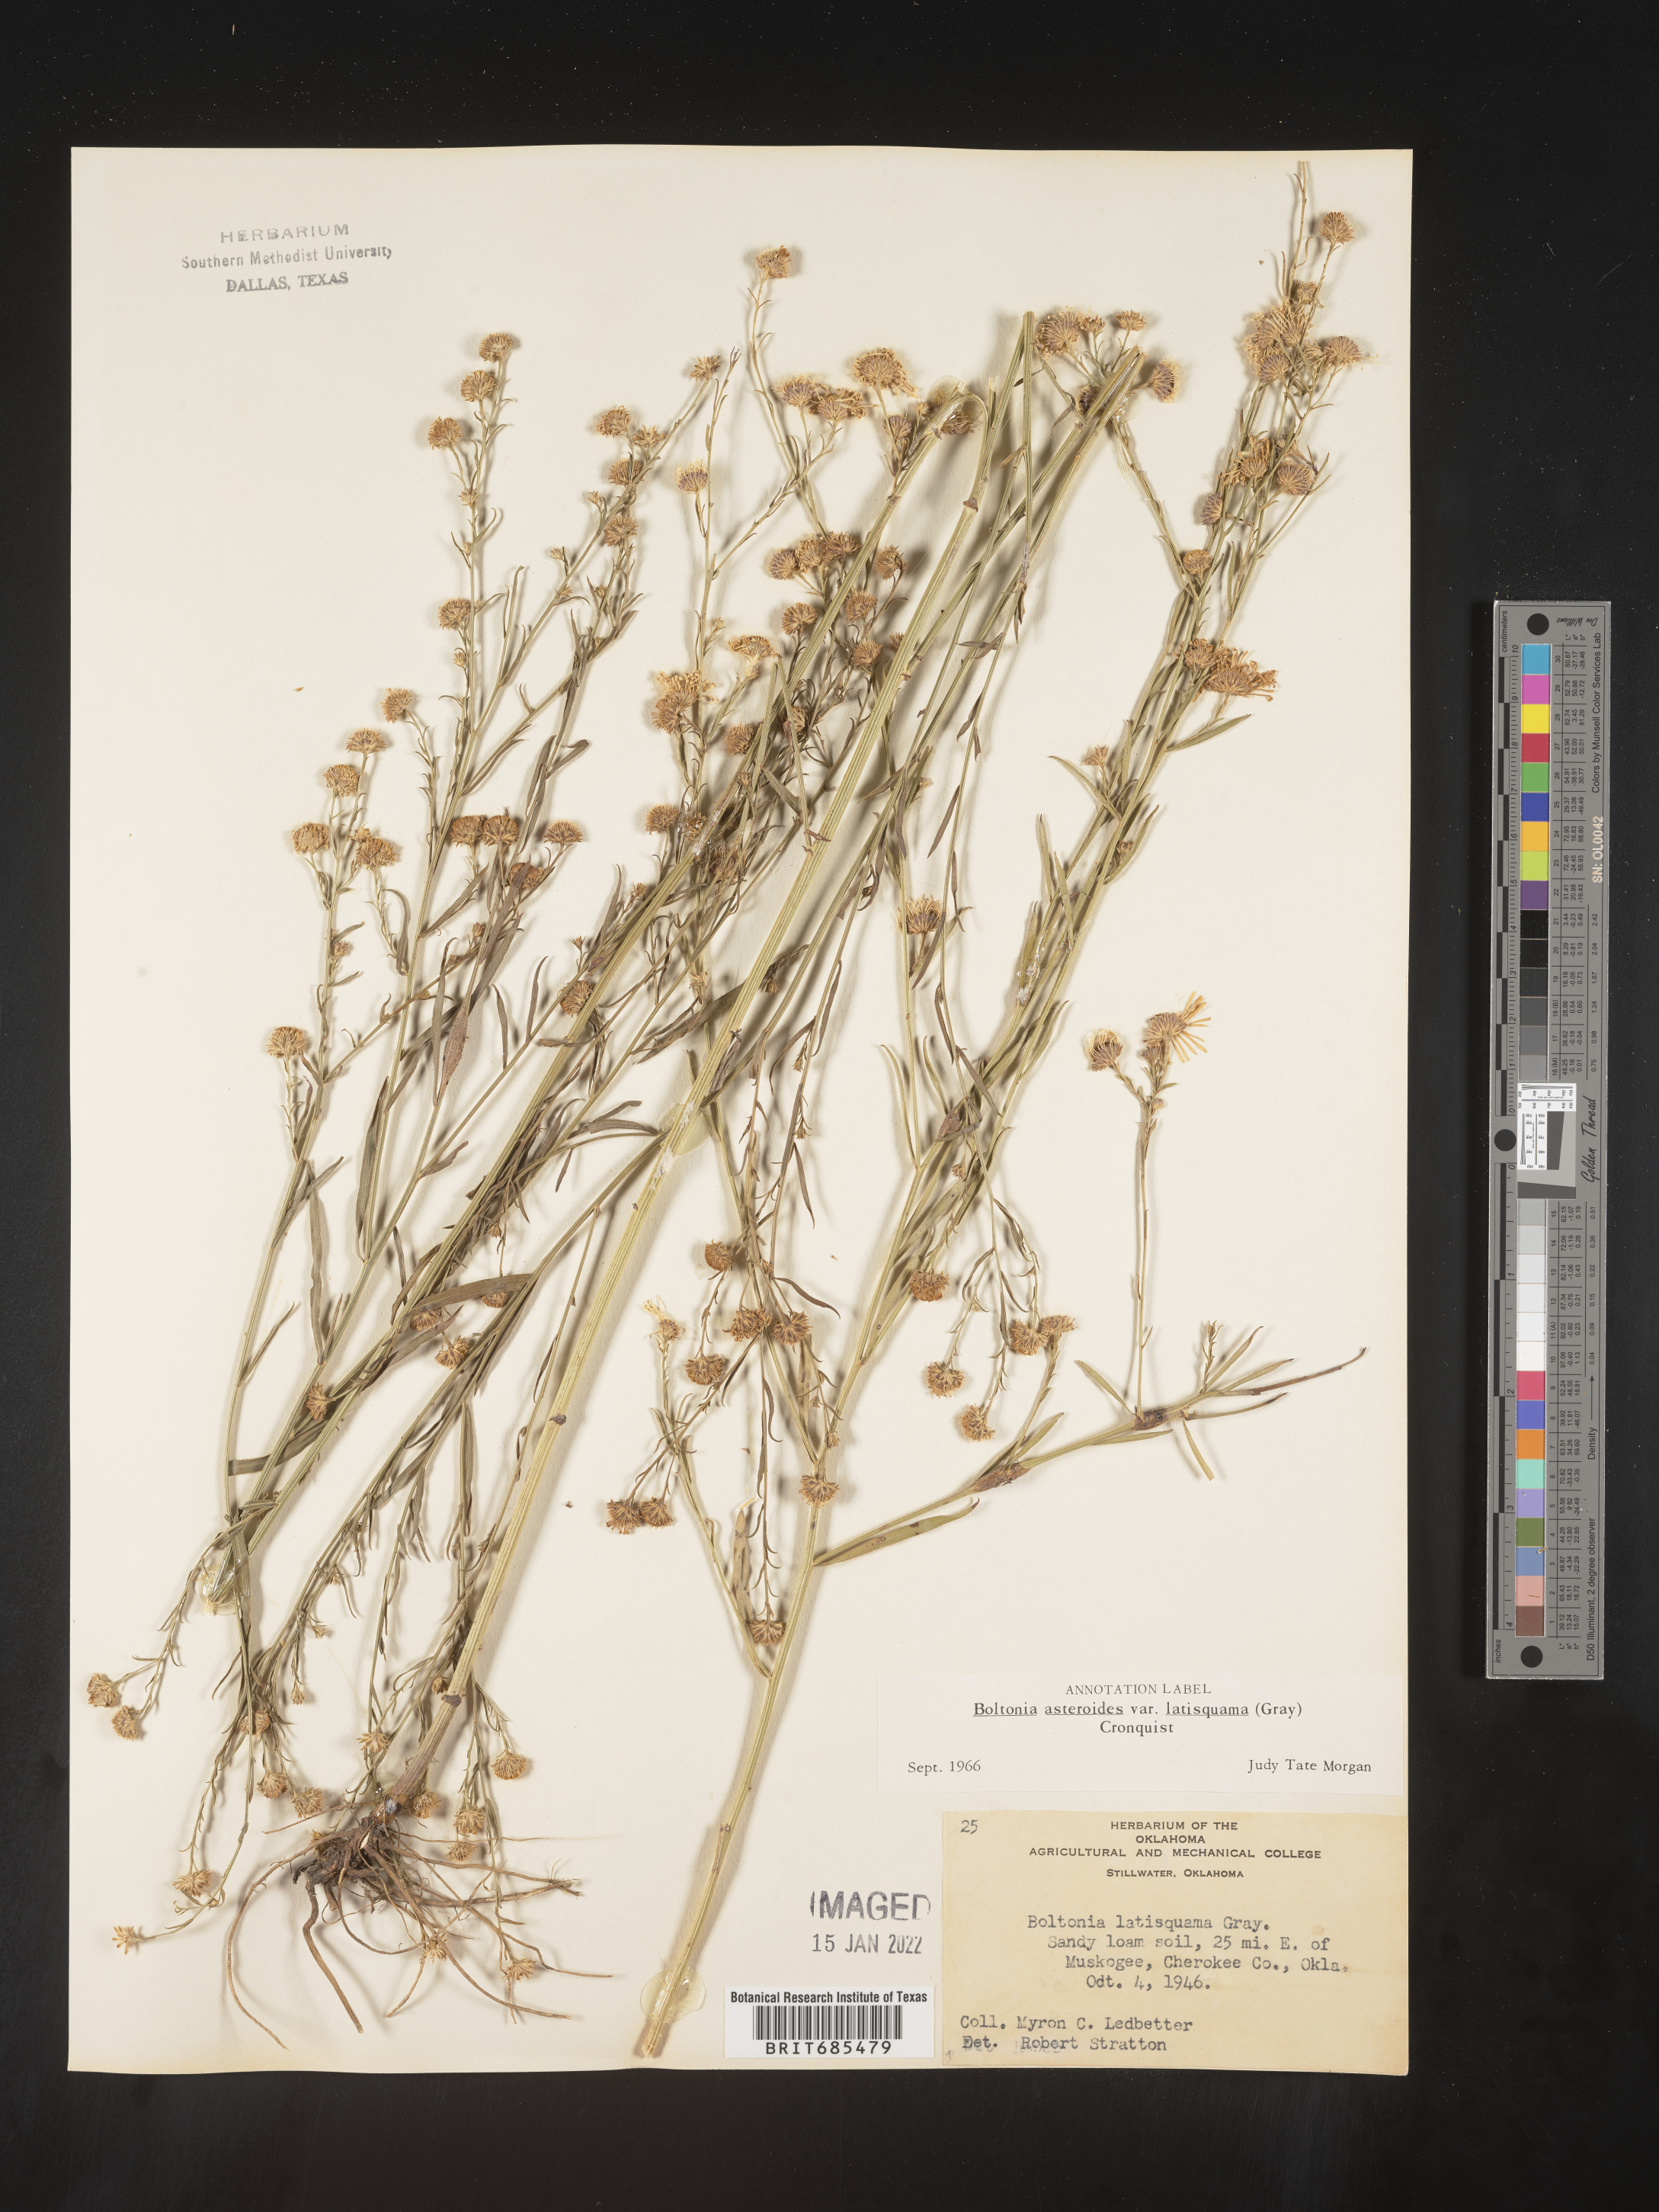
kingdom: Plantae
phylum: Tracheophyta
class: Magnoliopsida
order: Asterales
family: Asteraceae
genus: Boltonia
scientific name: Boltonia asteroides
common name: False chamomile
